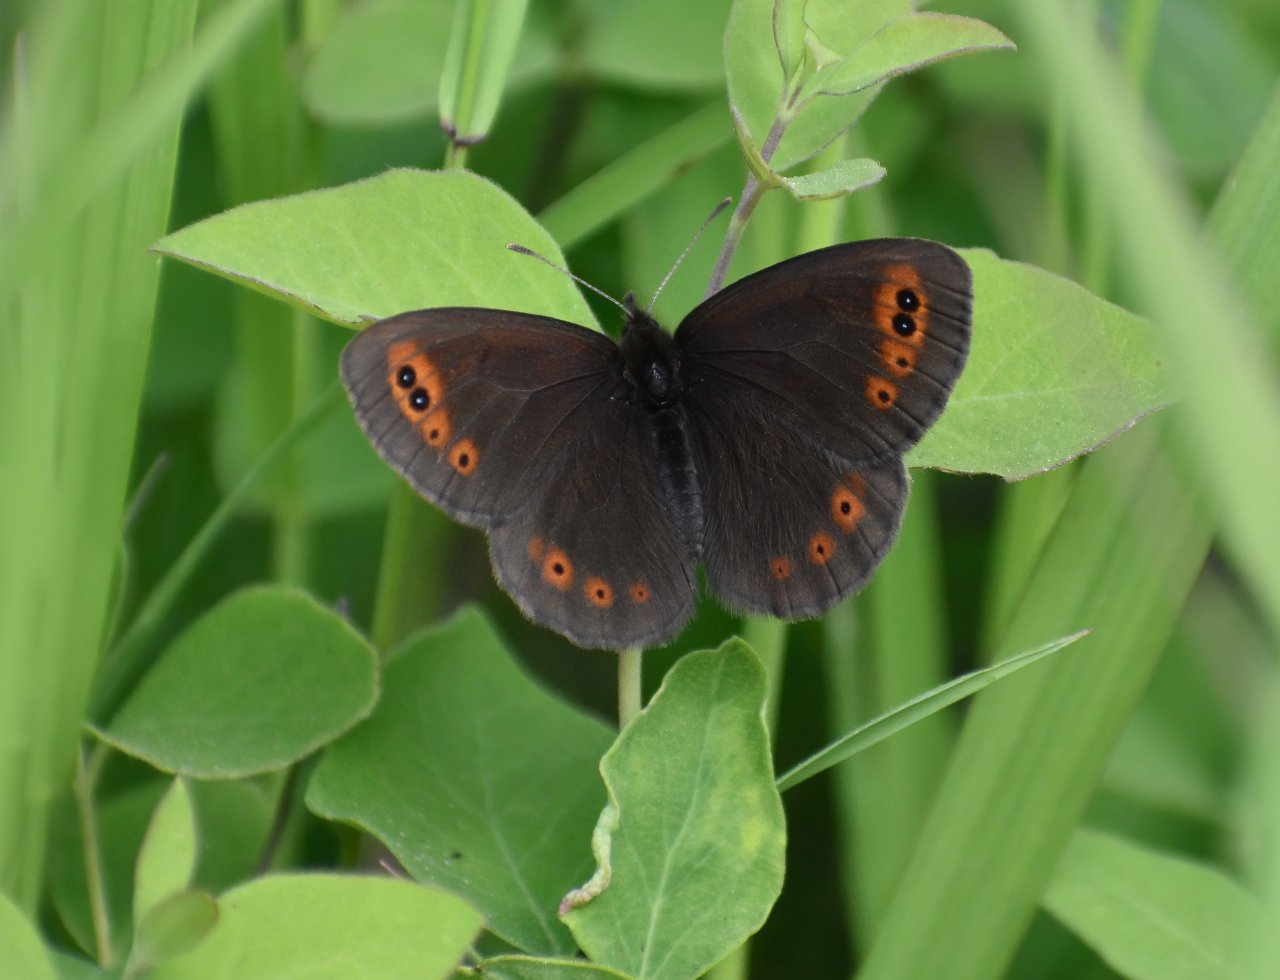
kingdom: Animalia
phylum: Arthropoda
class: Insecta
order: Lepidoptera
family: Nymphalidae
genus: Erebia
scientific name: Erebia epipsodea
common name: Common Alpine
